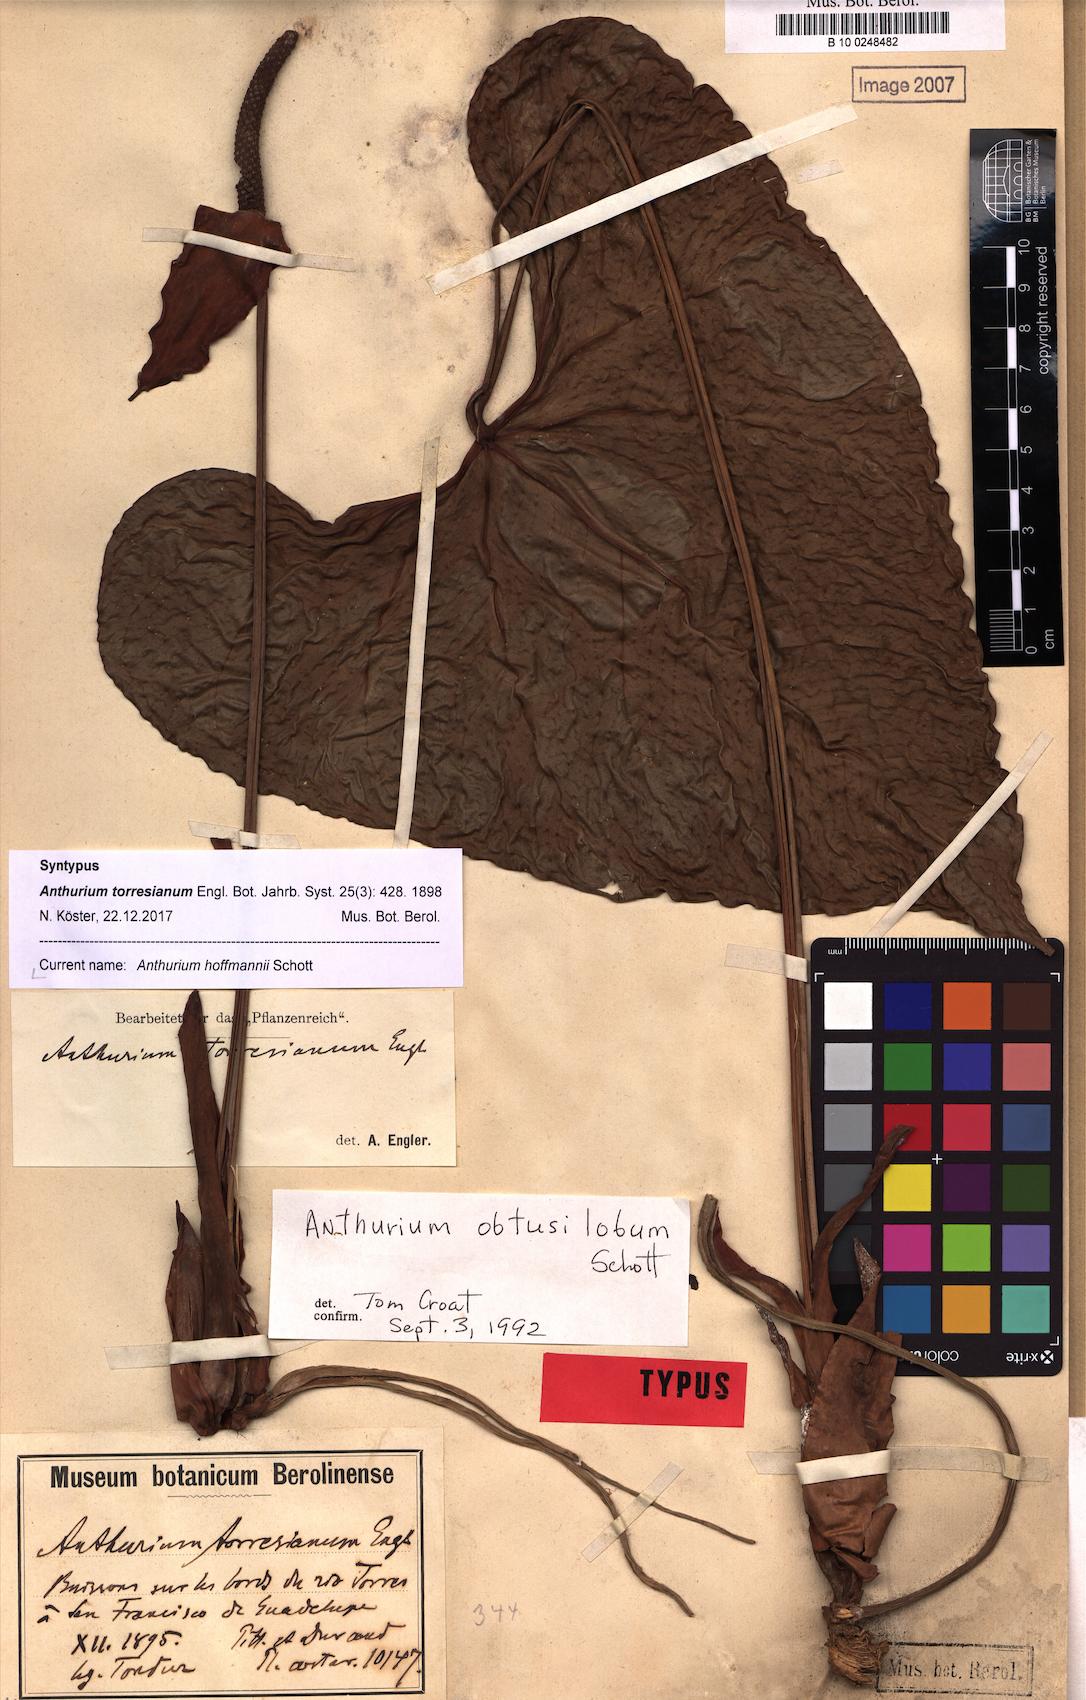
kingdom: Plantae
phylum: Tracheophyta
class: Liliopsida
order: Alismatales
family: Araceae
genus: Anthurium
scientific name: Anthurium hoffmannii
